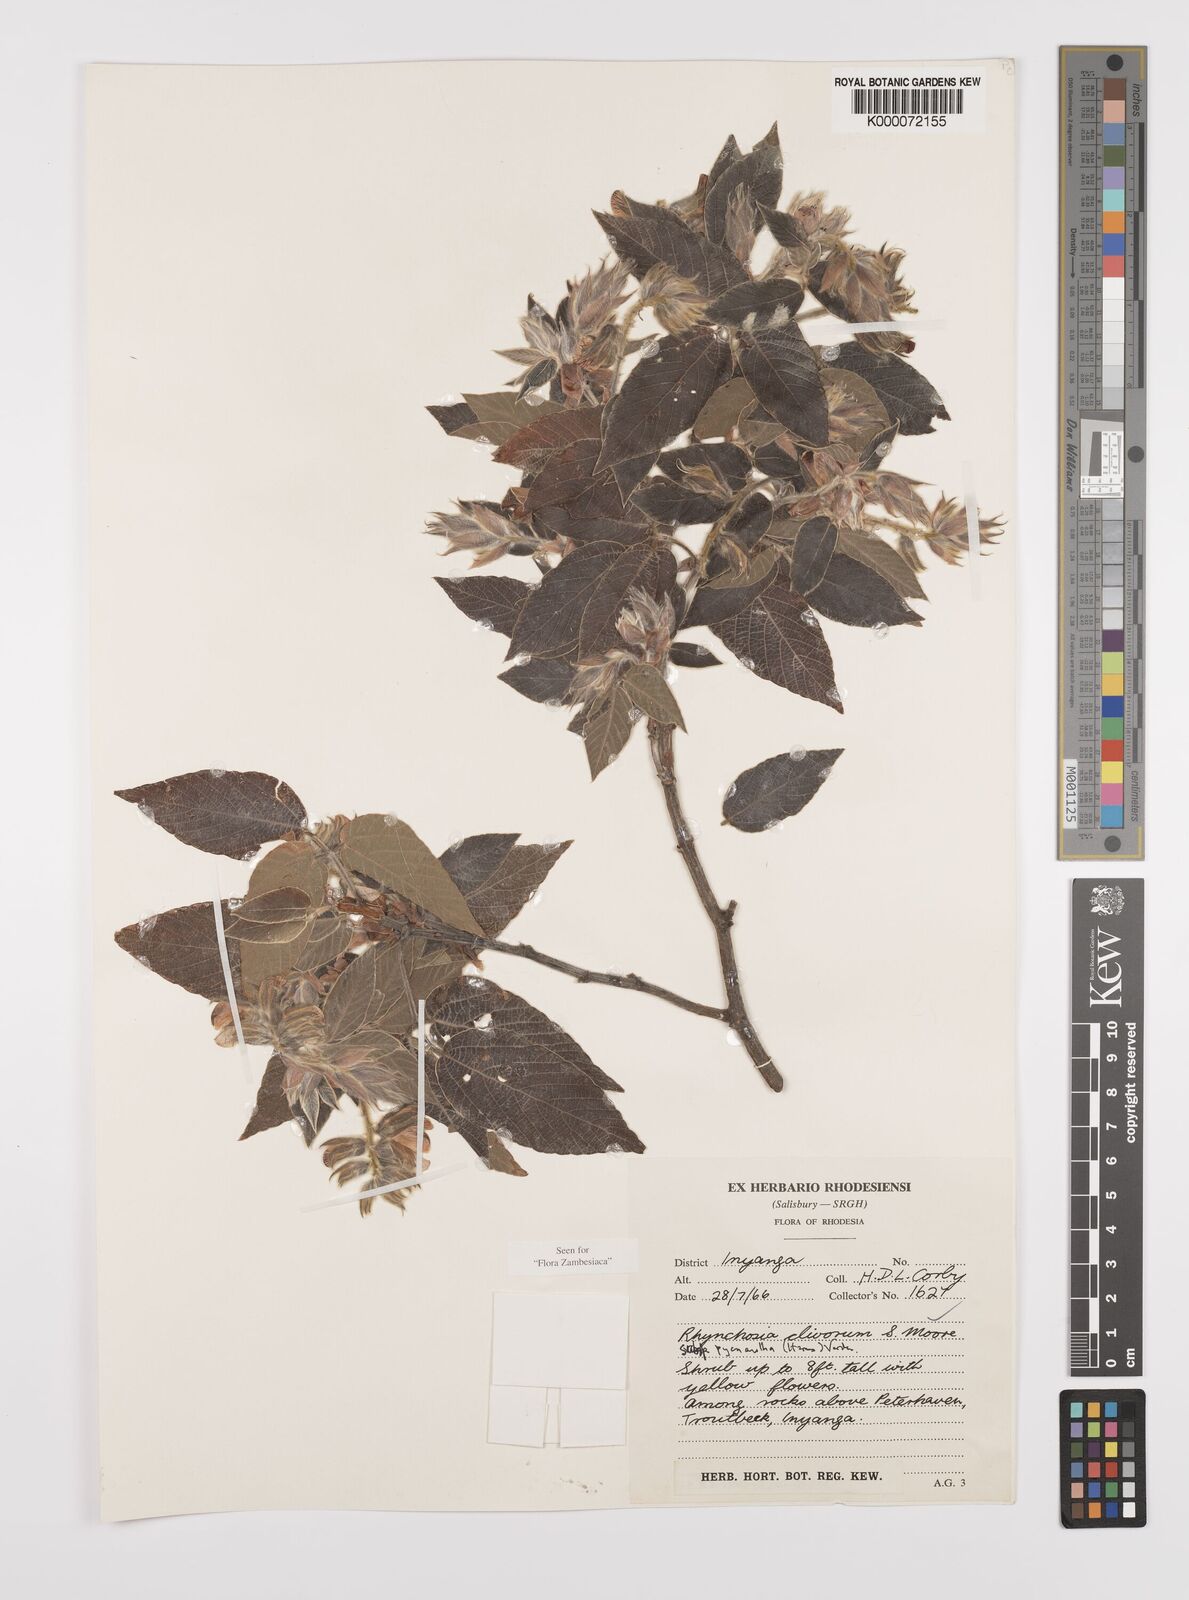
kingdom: Plantae
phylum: Tracheophyta
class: Magnoliopsida
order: Fabales
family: Fabaceae
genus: Rhynchosia
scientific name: Rhynchosia clivorum
